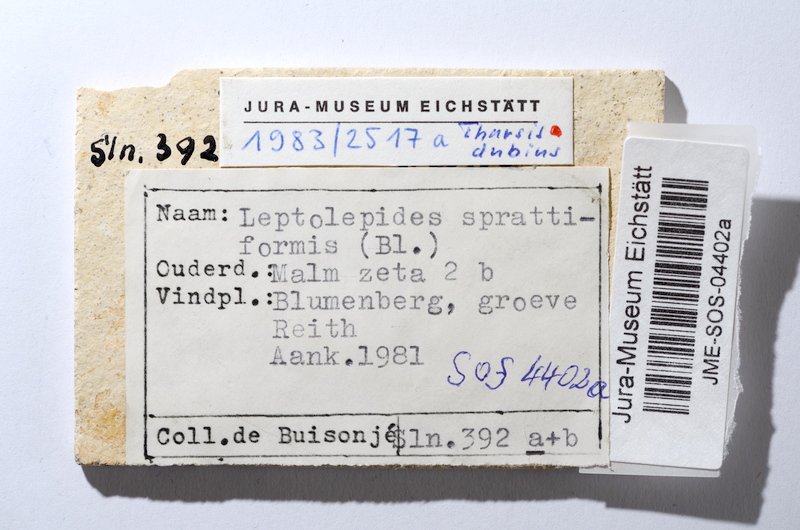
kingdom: Animalia
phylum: Chordata
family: Ascalaboidae
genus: Tharsis
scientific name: Tharsis dubius
